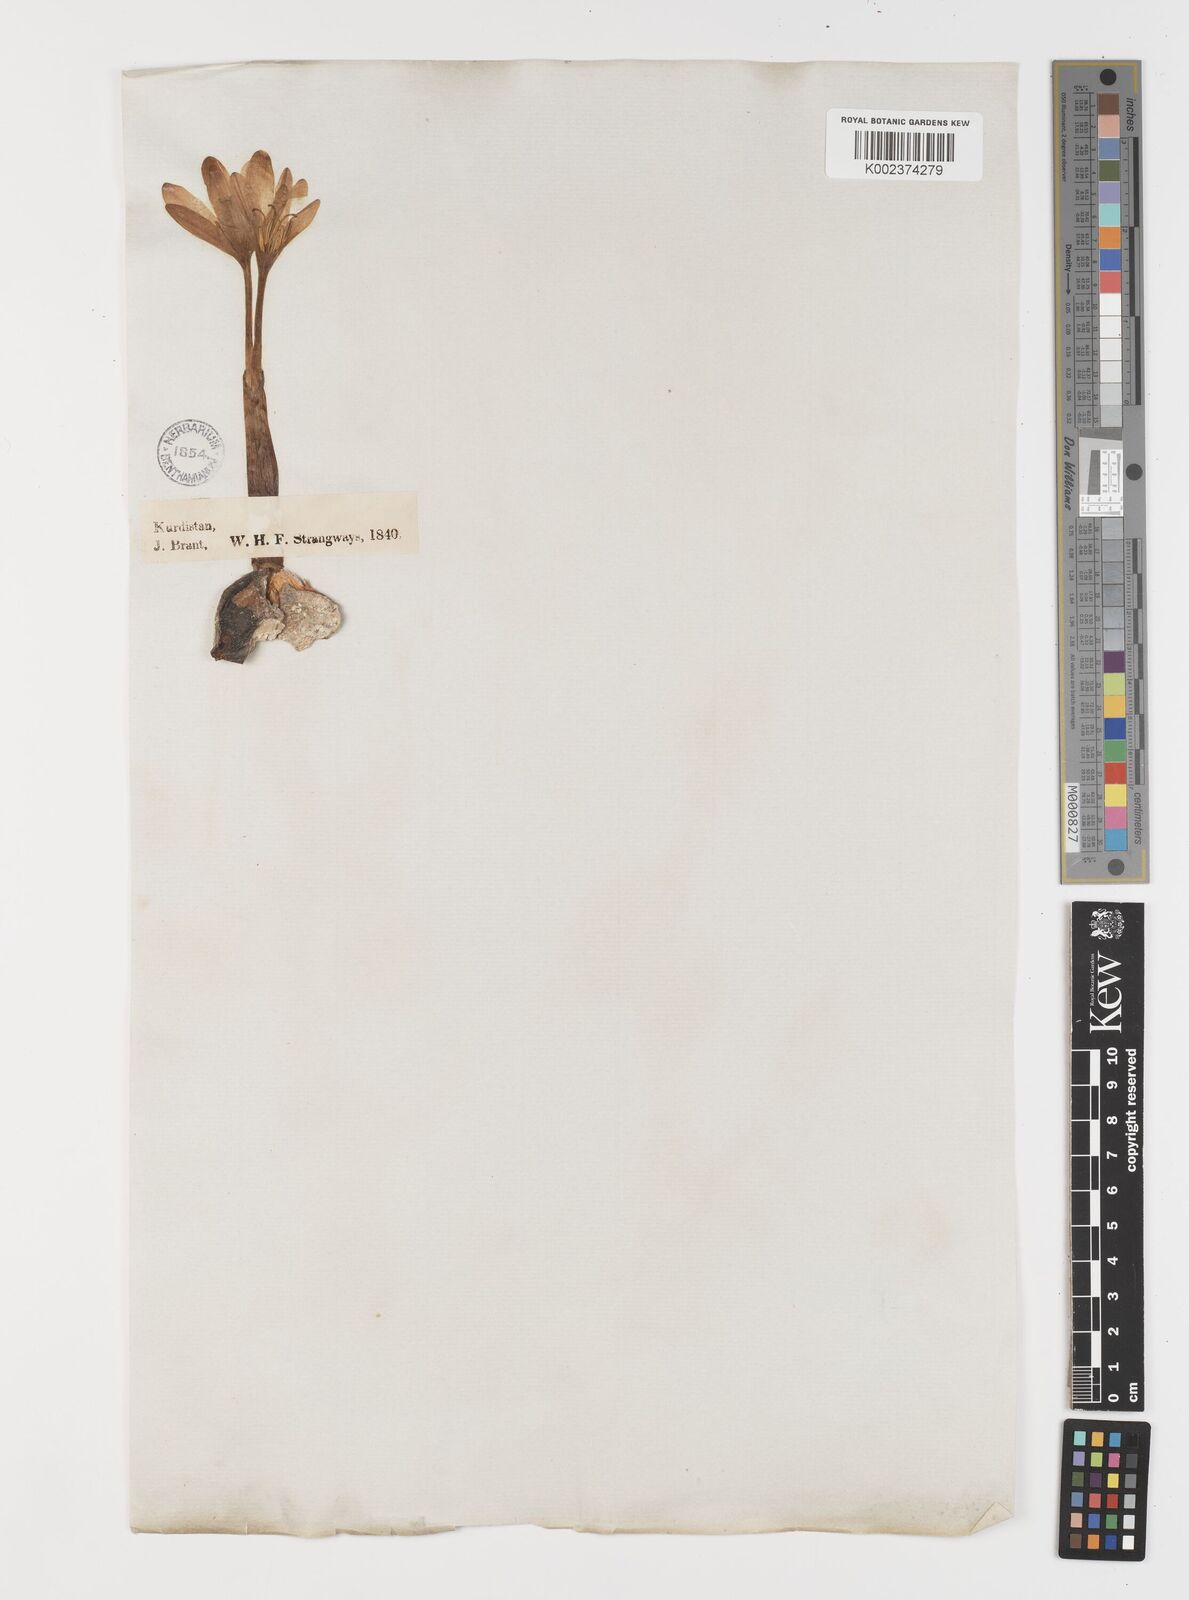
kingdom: Plantae
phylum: Tracheophyta
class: Liliopsida
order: Liliales
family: Colchicaceae
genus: Colchicum
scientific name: Colchicum
